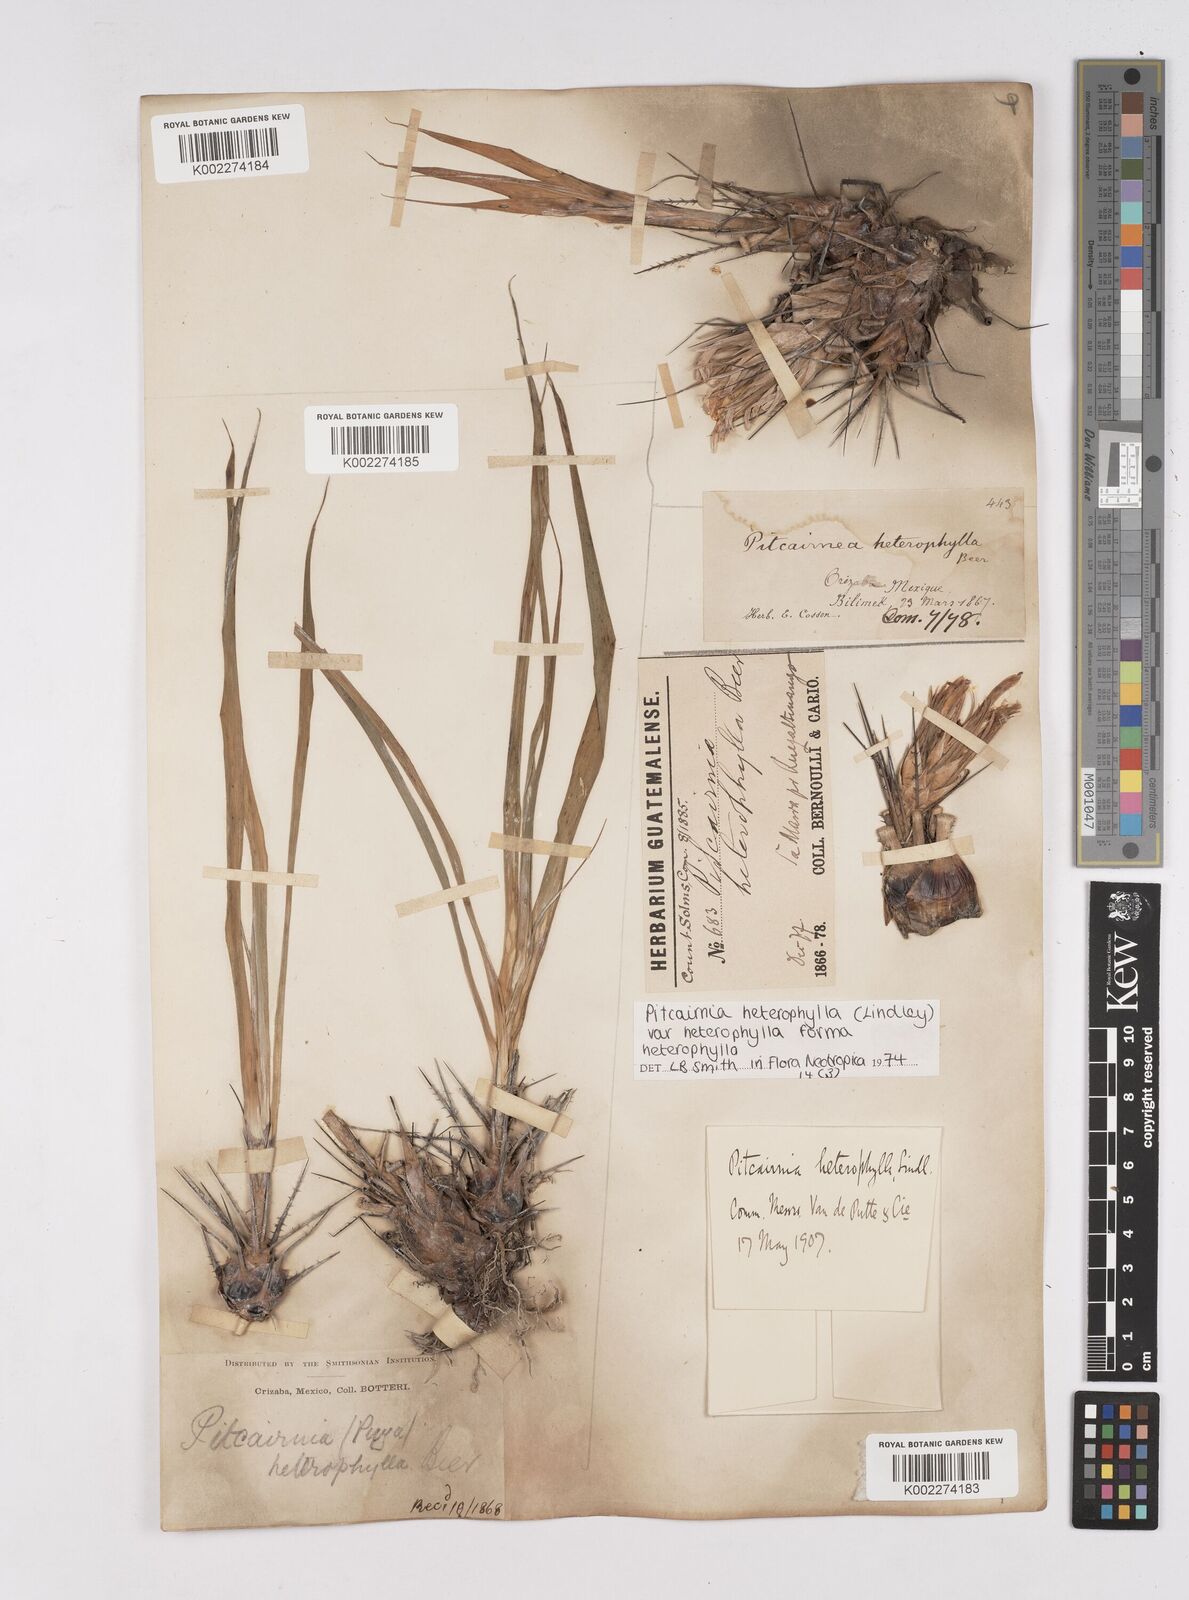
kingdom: Plantae
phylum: Tracheophyta
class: Liliopsida
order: Poales
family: Bromeliaceae
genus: Pitcairnia
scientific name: Pitcairnia heterophylla
